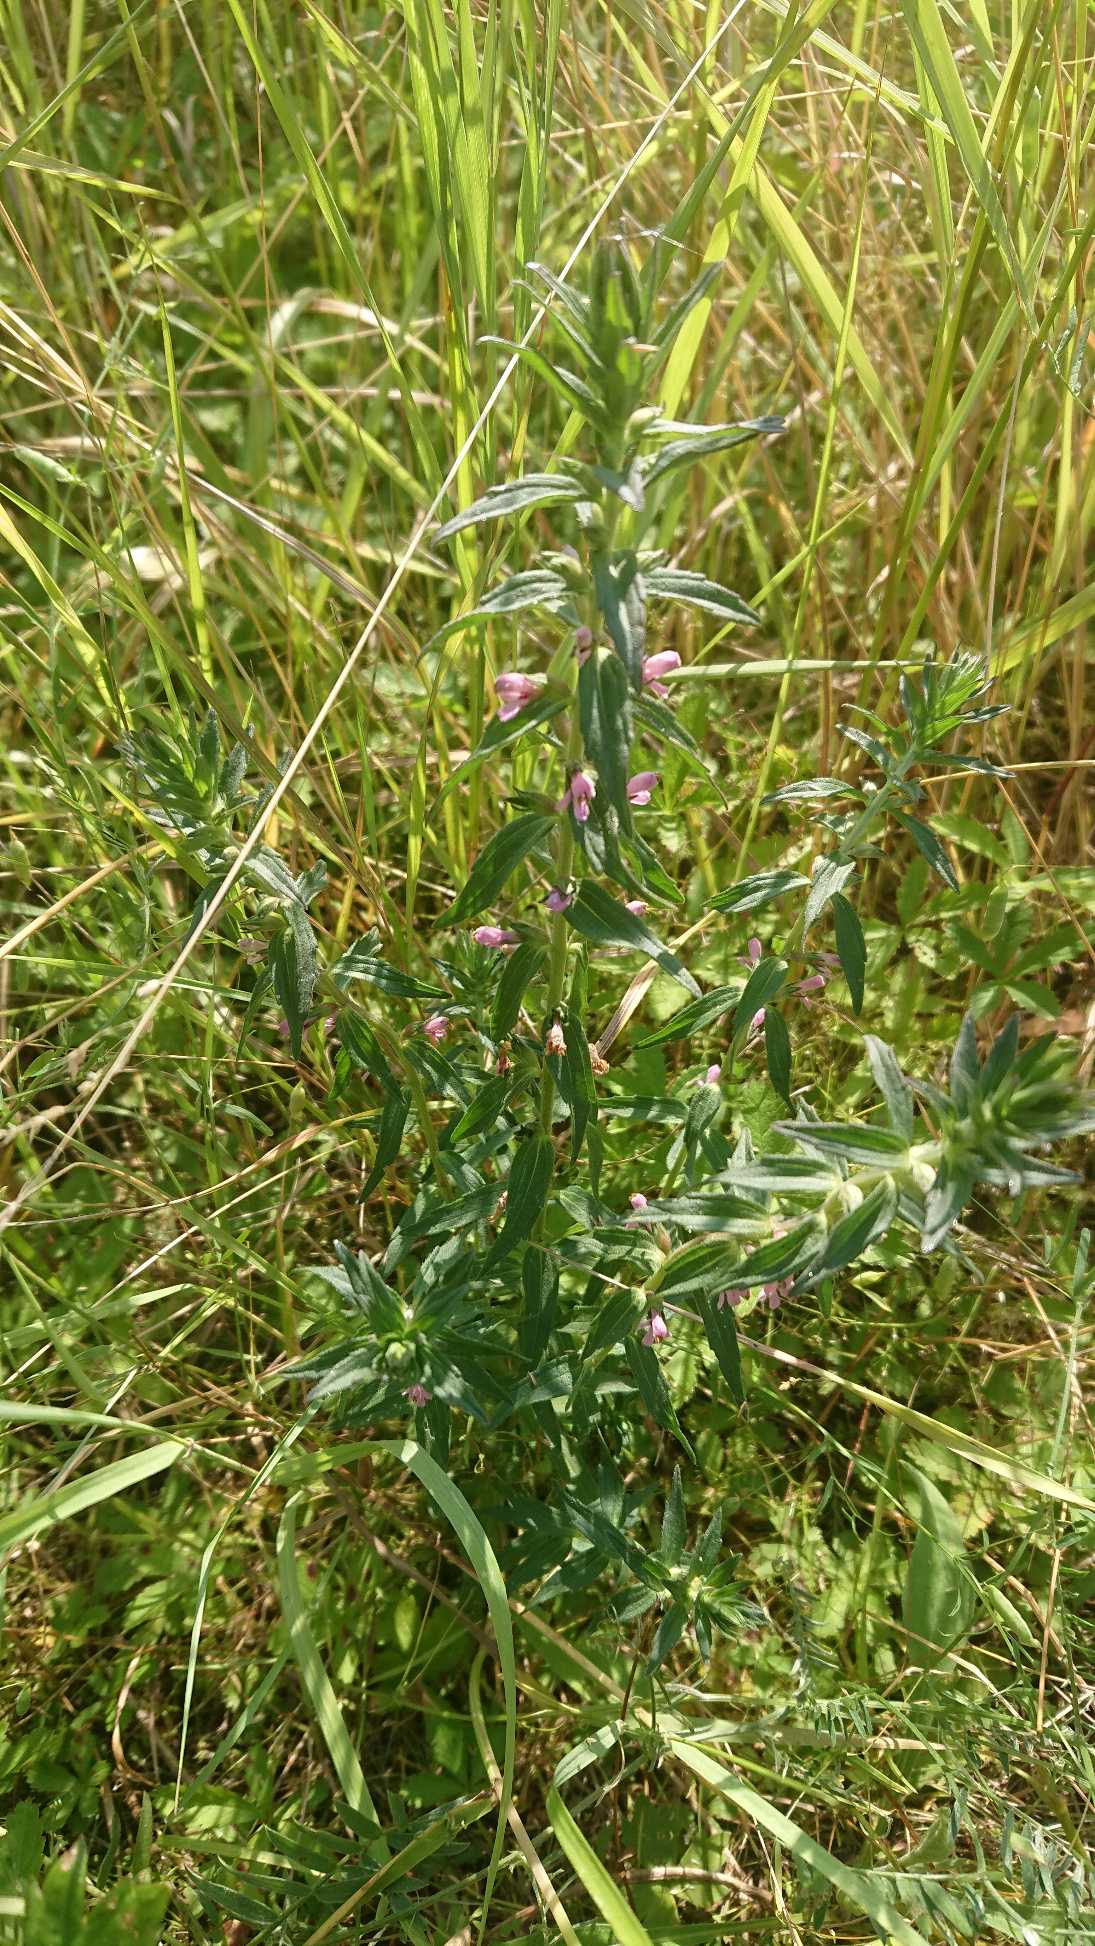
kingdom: Plantae
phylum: Tracheophyta
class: Magnoliopsida
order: Lamiales
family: Orobanchaceae
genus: Odontites
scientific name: Odontites vernus
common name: Mark-rødtop
